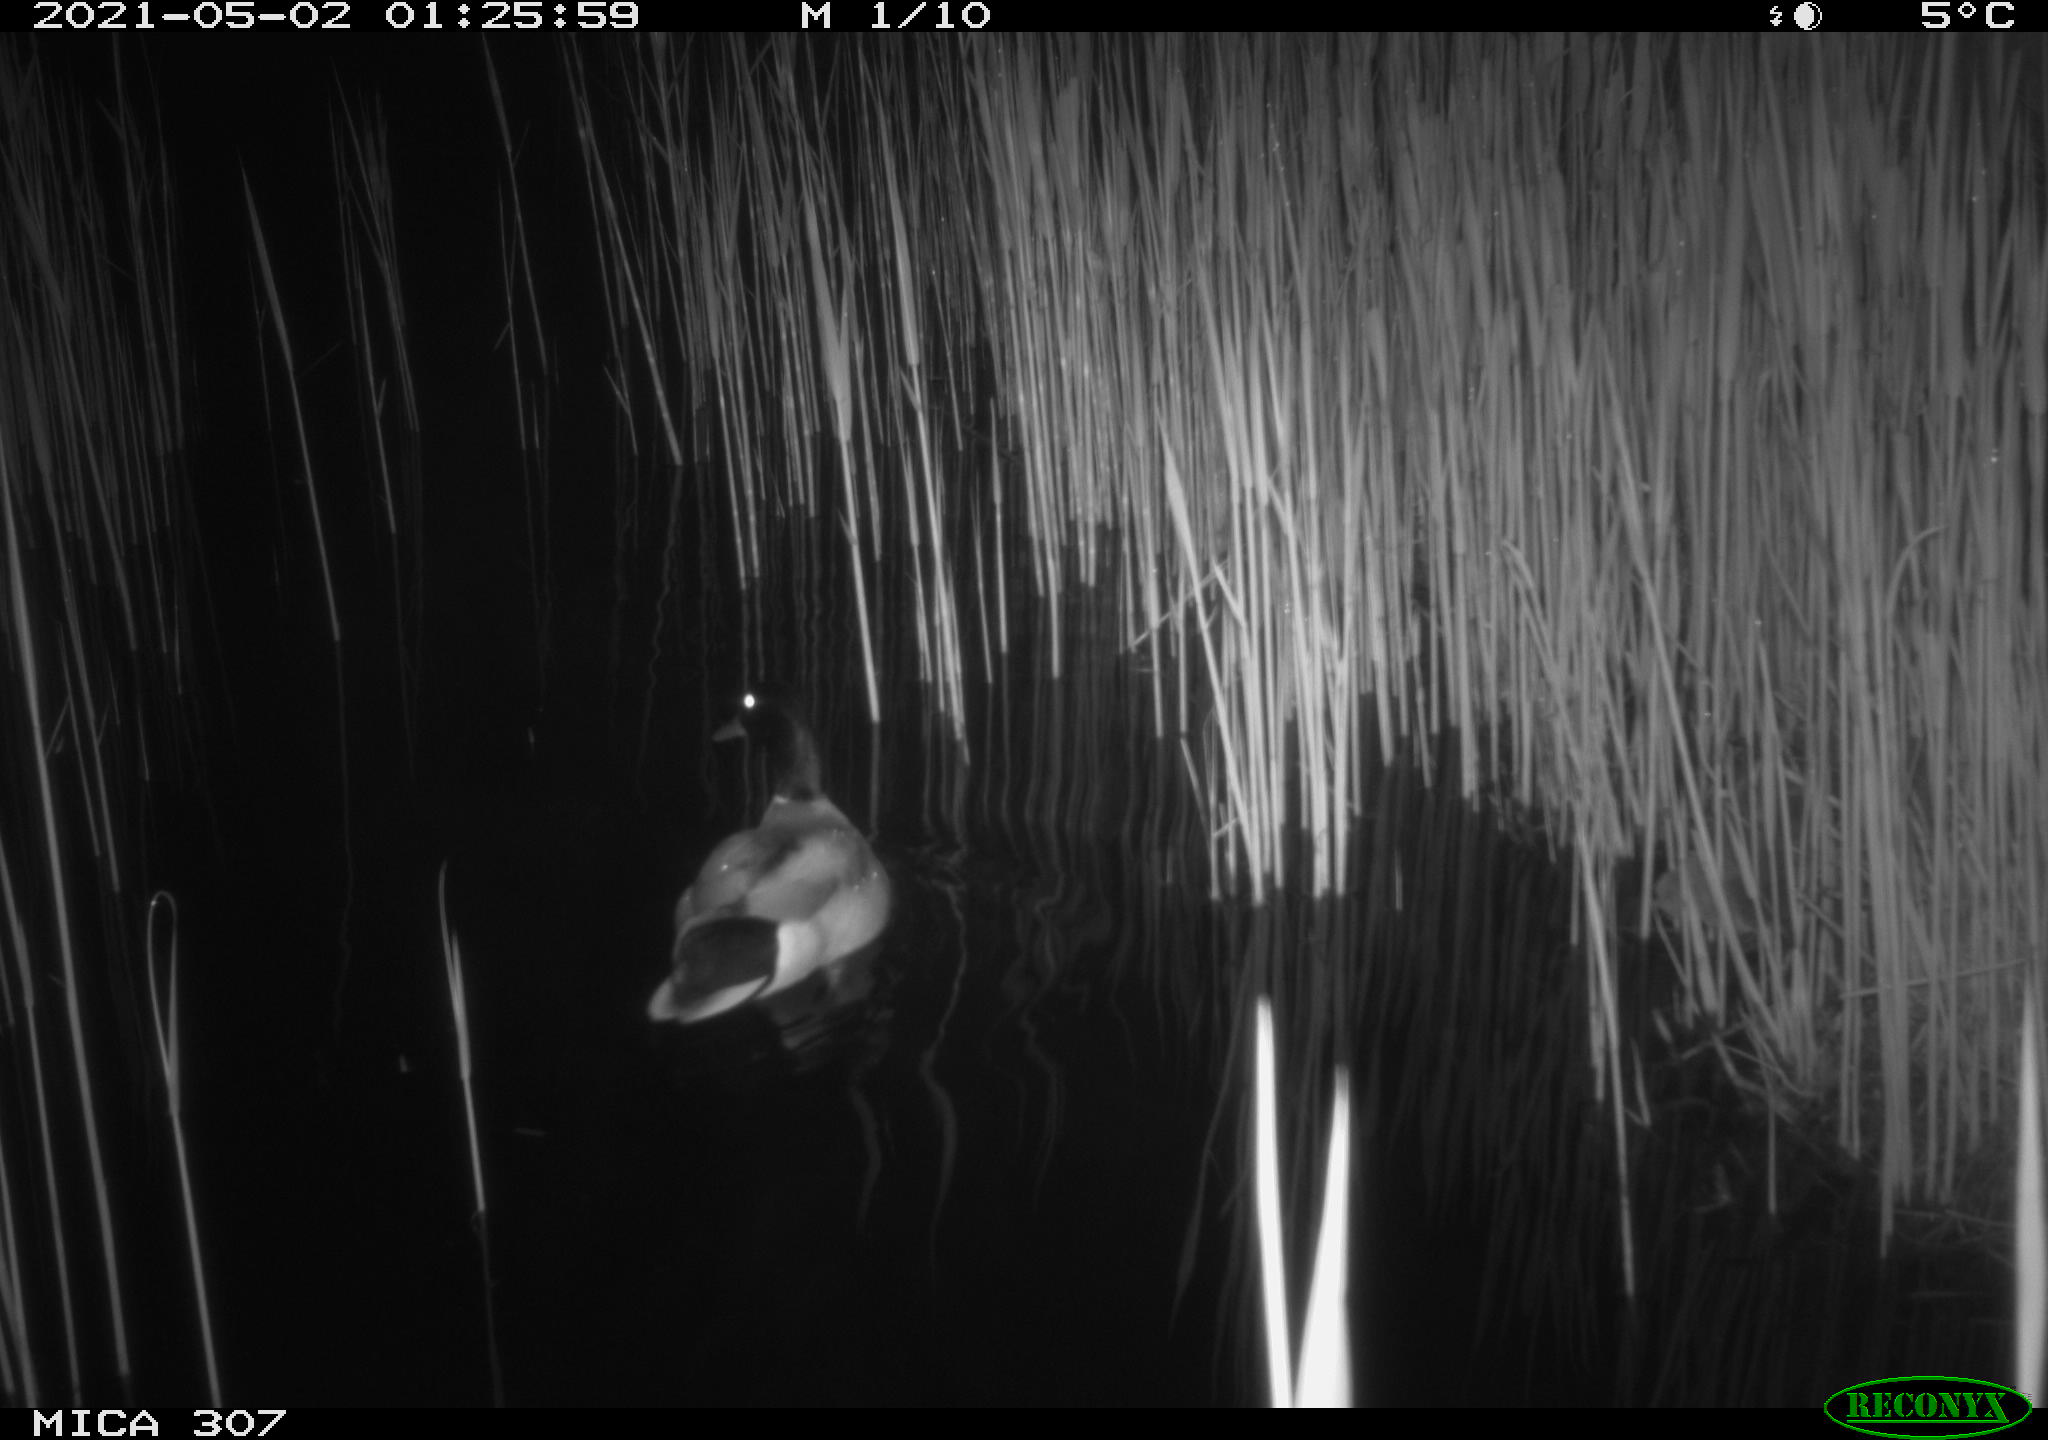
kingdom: Animalia
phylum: Chordata
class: Aves
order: Gruiformes
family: Rallidae
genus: Gallinula
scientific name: Gallinula chloropus
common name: Common moorhen
